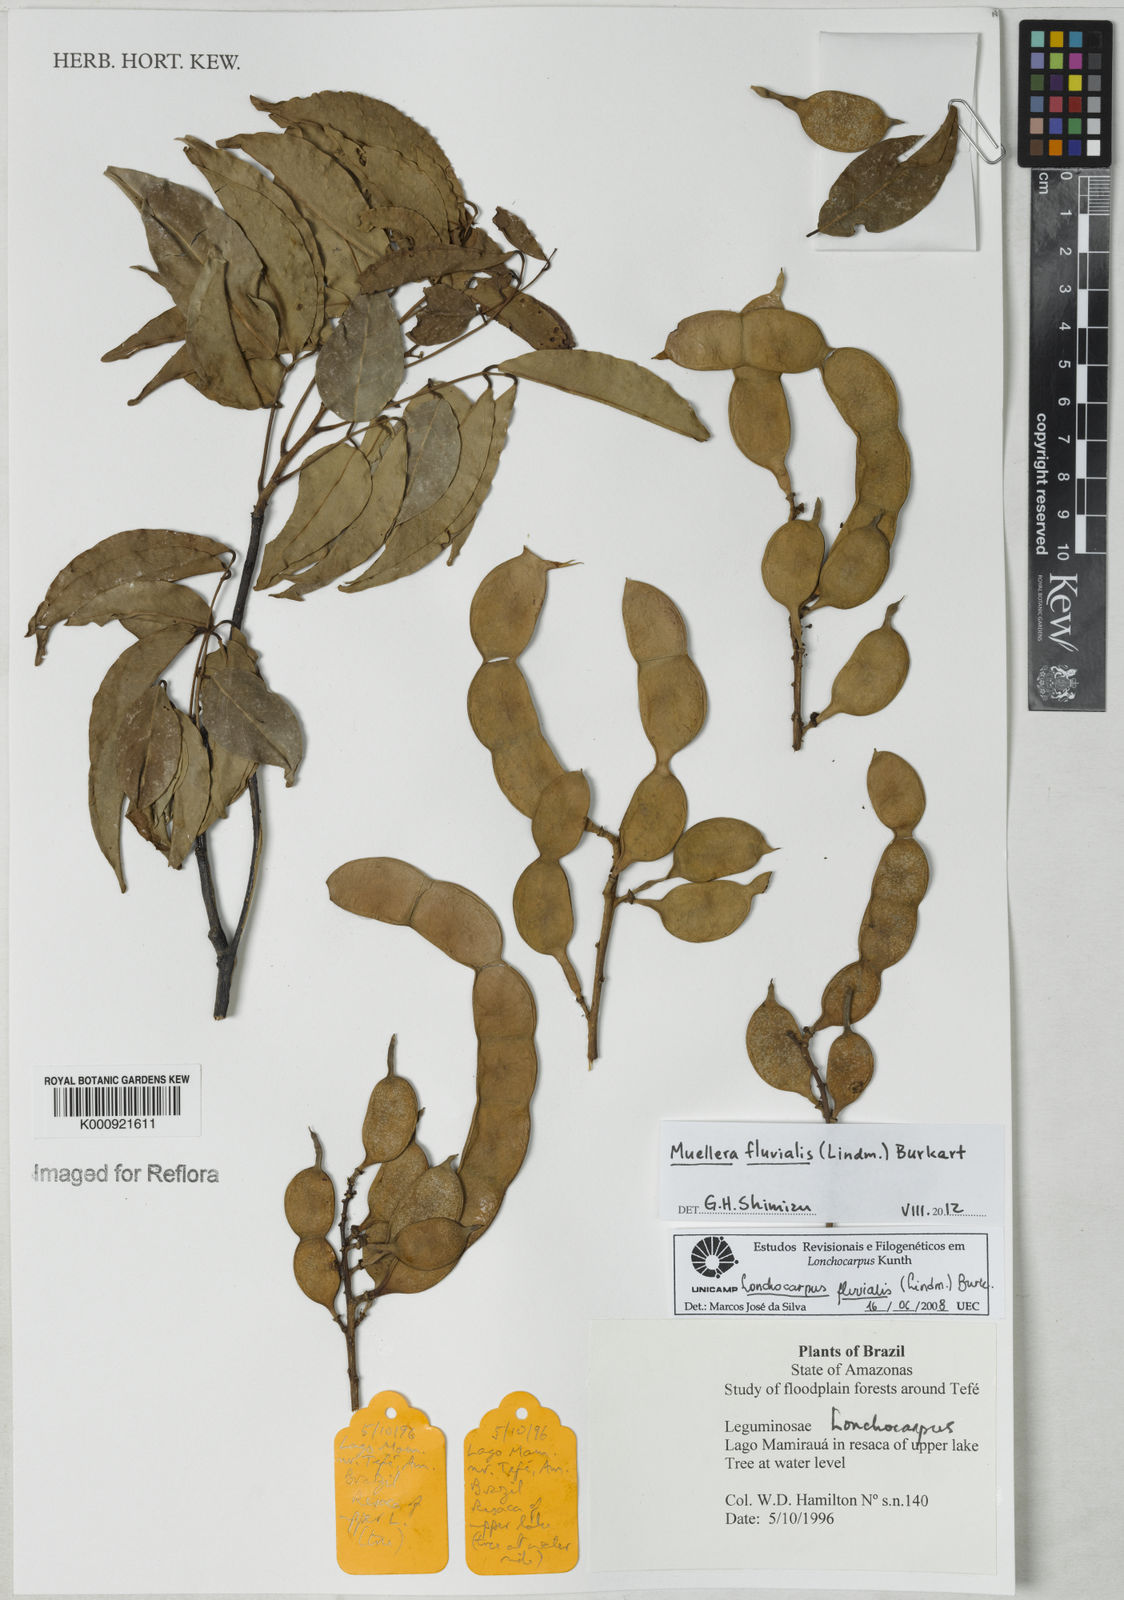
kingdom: Plantae
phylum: Tracheophyta
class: Magnoliopsida
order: Fabales
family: Fabaceae
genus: Muellera
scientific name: Muellera fluvialis
